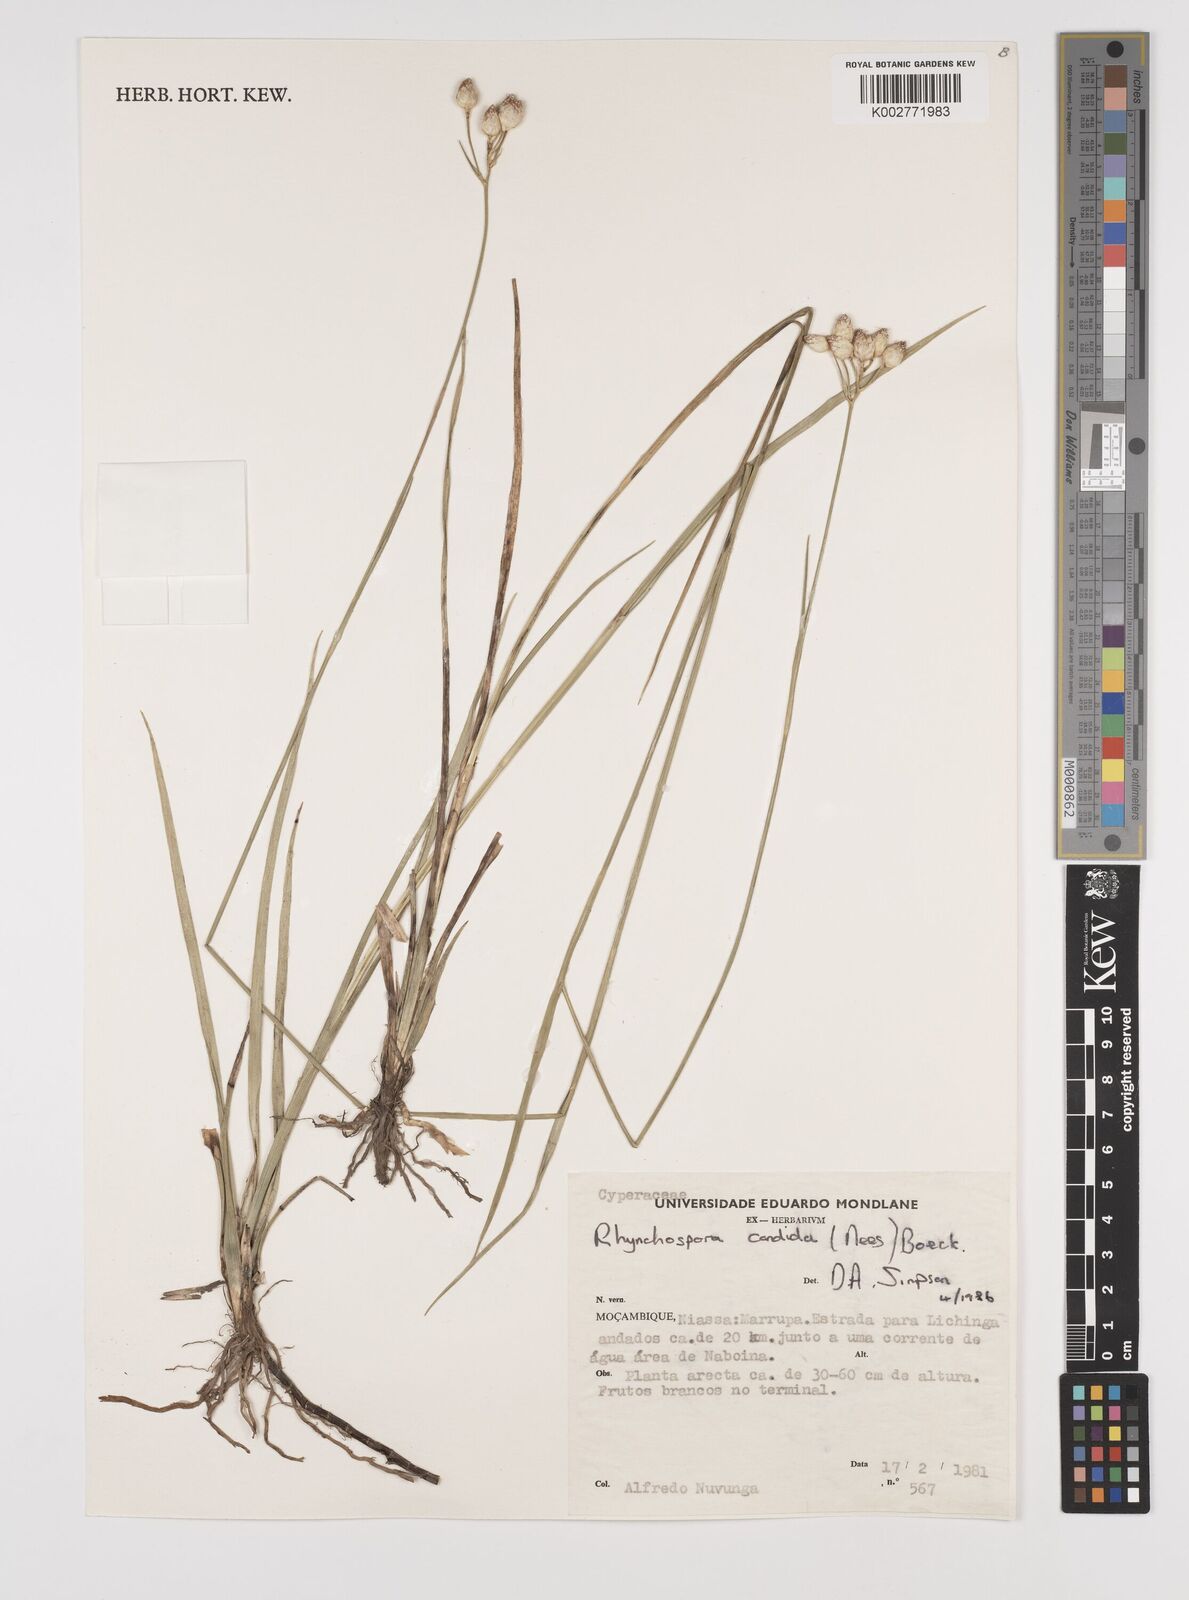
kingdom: Plantae
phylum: Tracheophyta
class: Liliopsida
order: Poales
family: Cyperaceae
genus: Rhynchospora
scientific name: Rhynchospora candida
